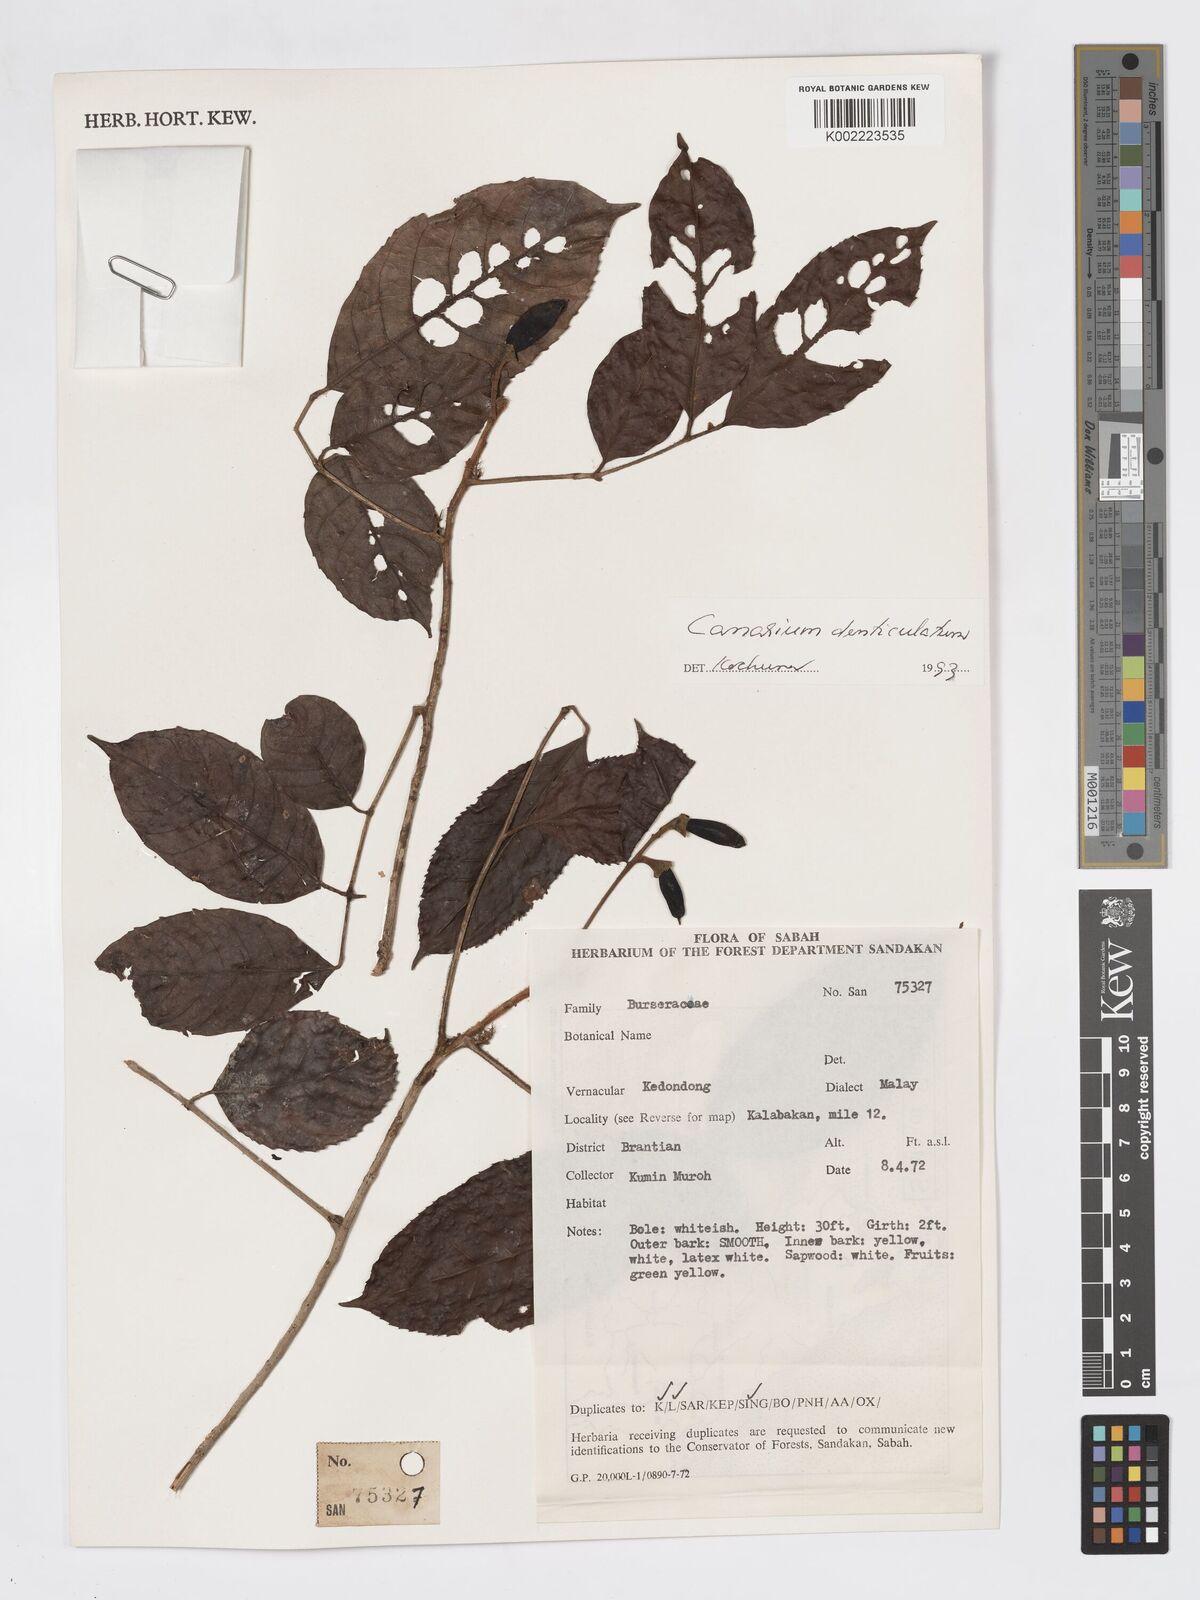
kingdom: Plantae
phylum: Tracheophyta
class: Magnoliopsida
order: Sapindales
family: Burseraceae
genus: Canarium
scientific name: Canarium denticulatum
